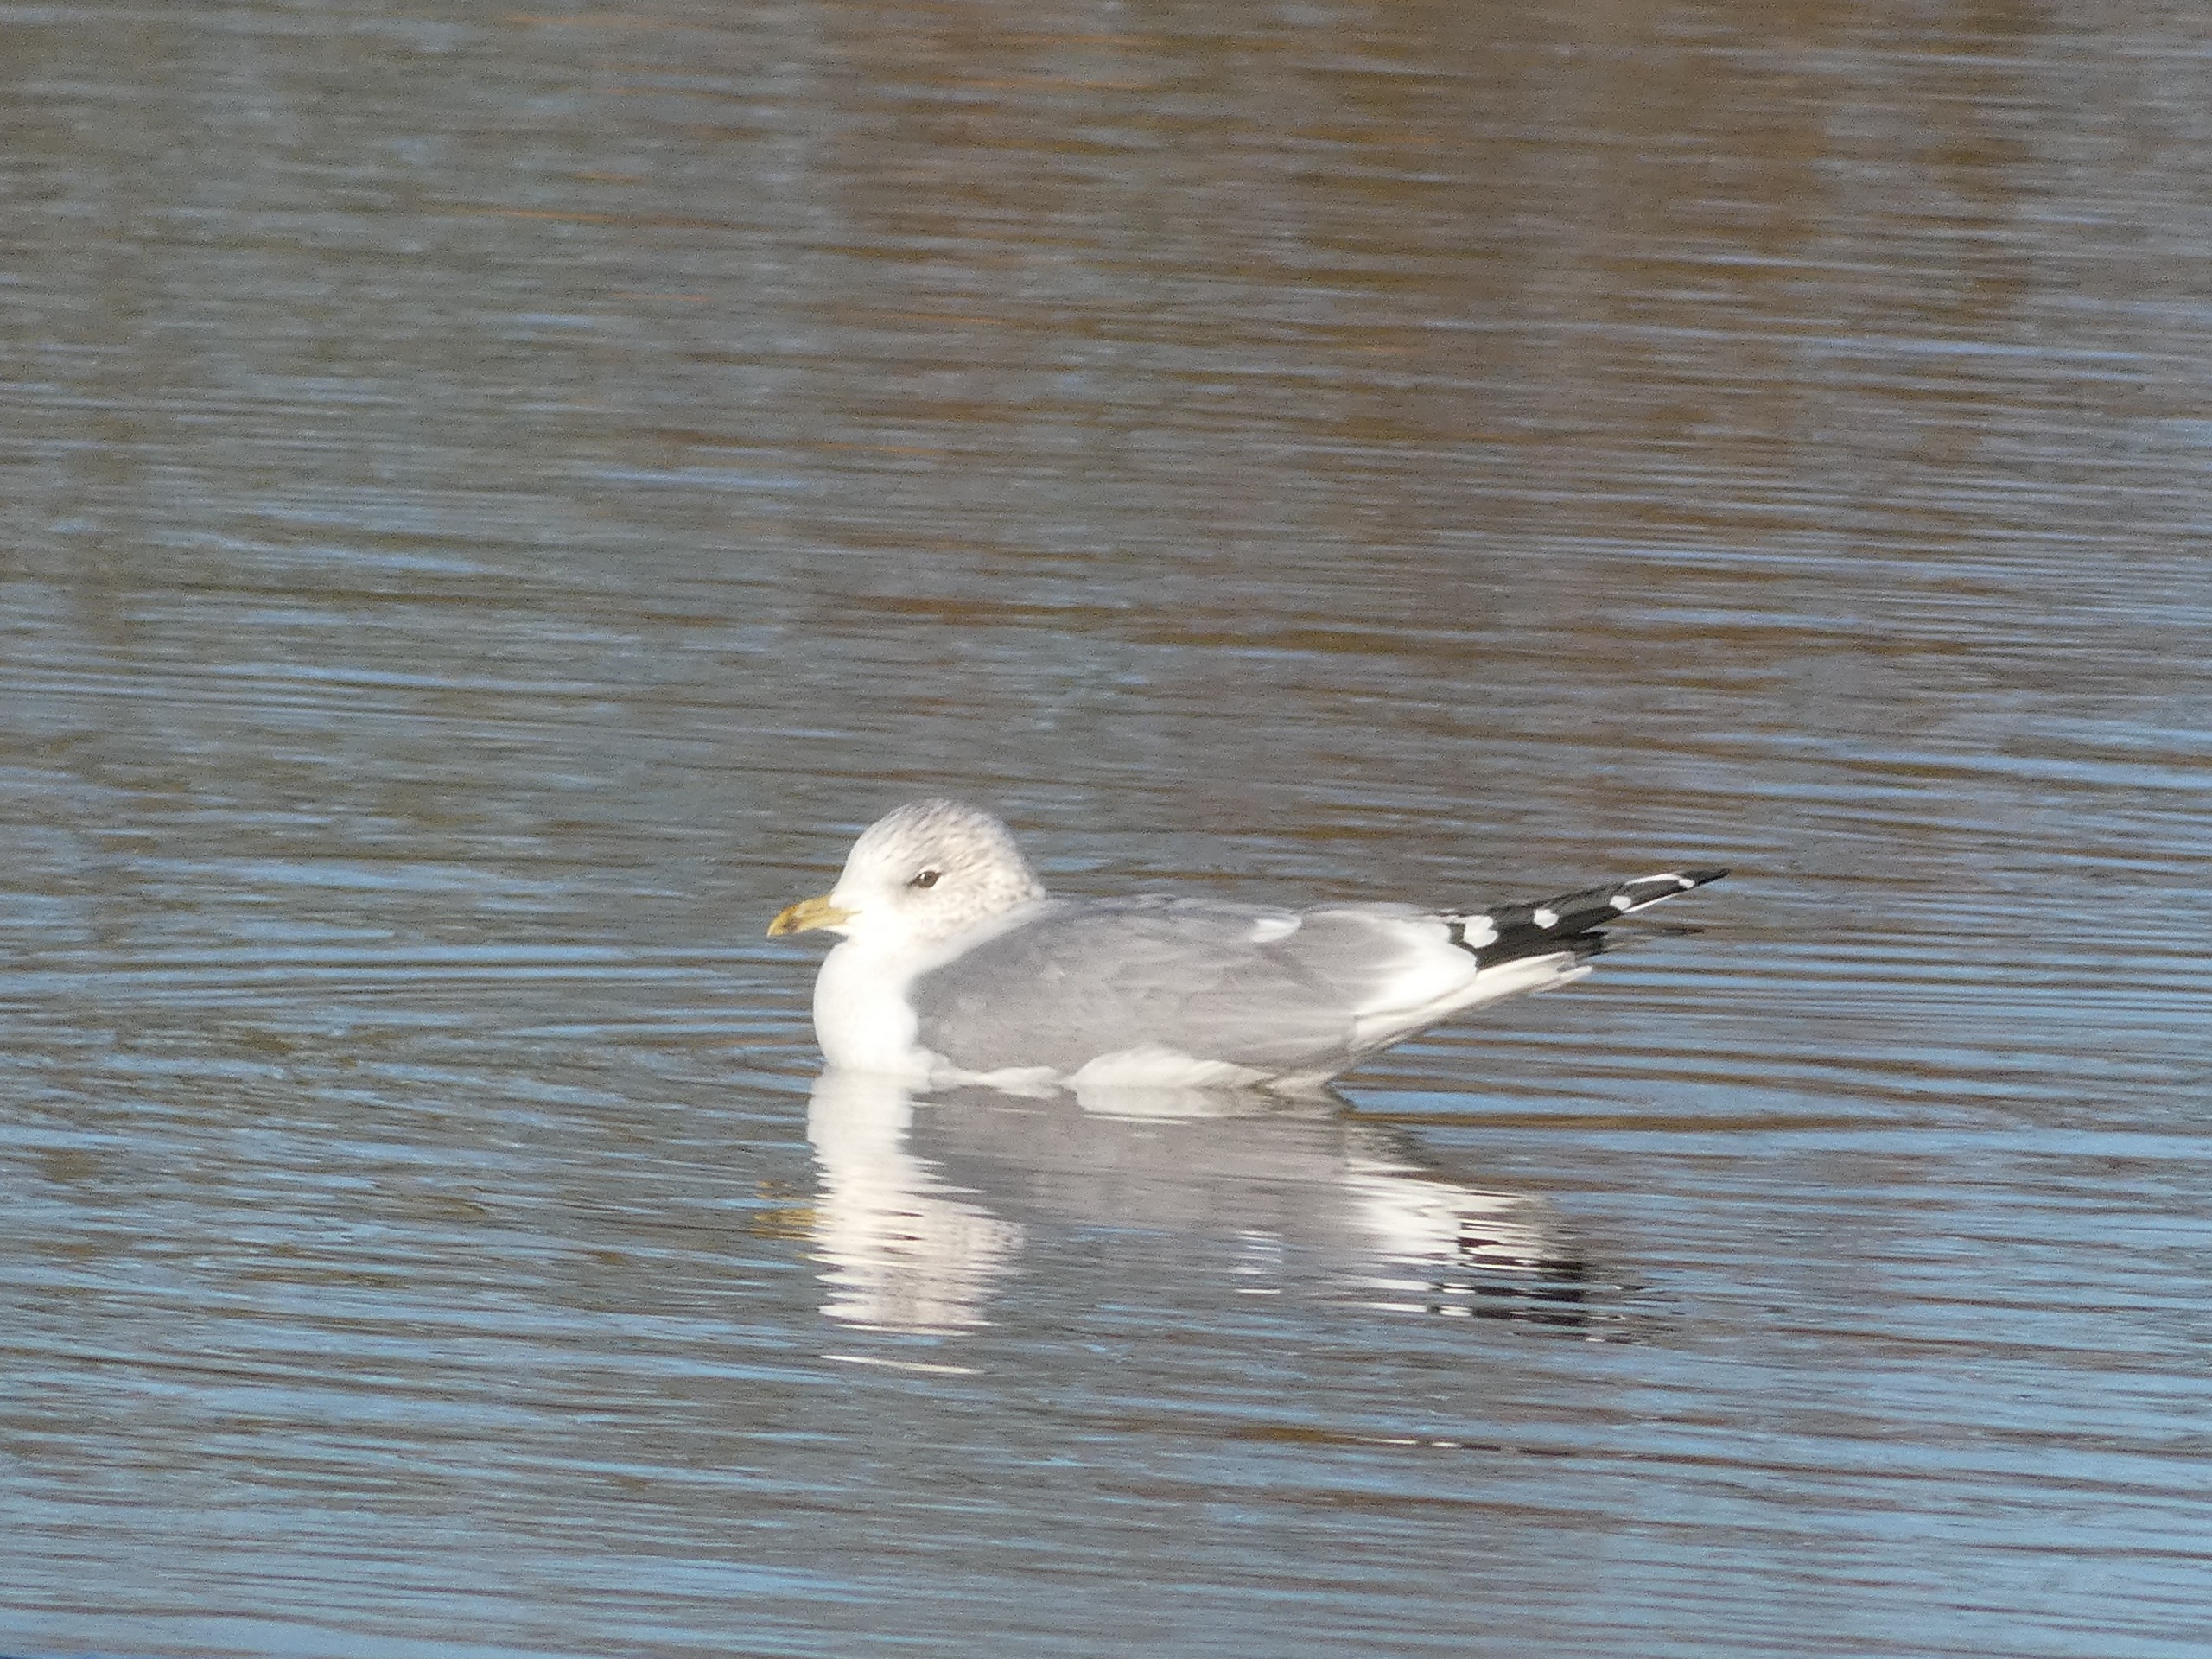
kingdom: Animalia
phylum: Chordata
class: Aves
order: Charadriiformes
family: Laridae
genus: Larus
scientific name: Larus canus
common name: Stormmåge
